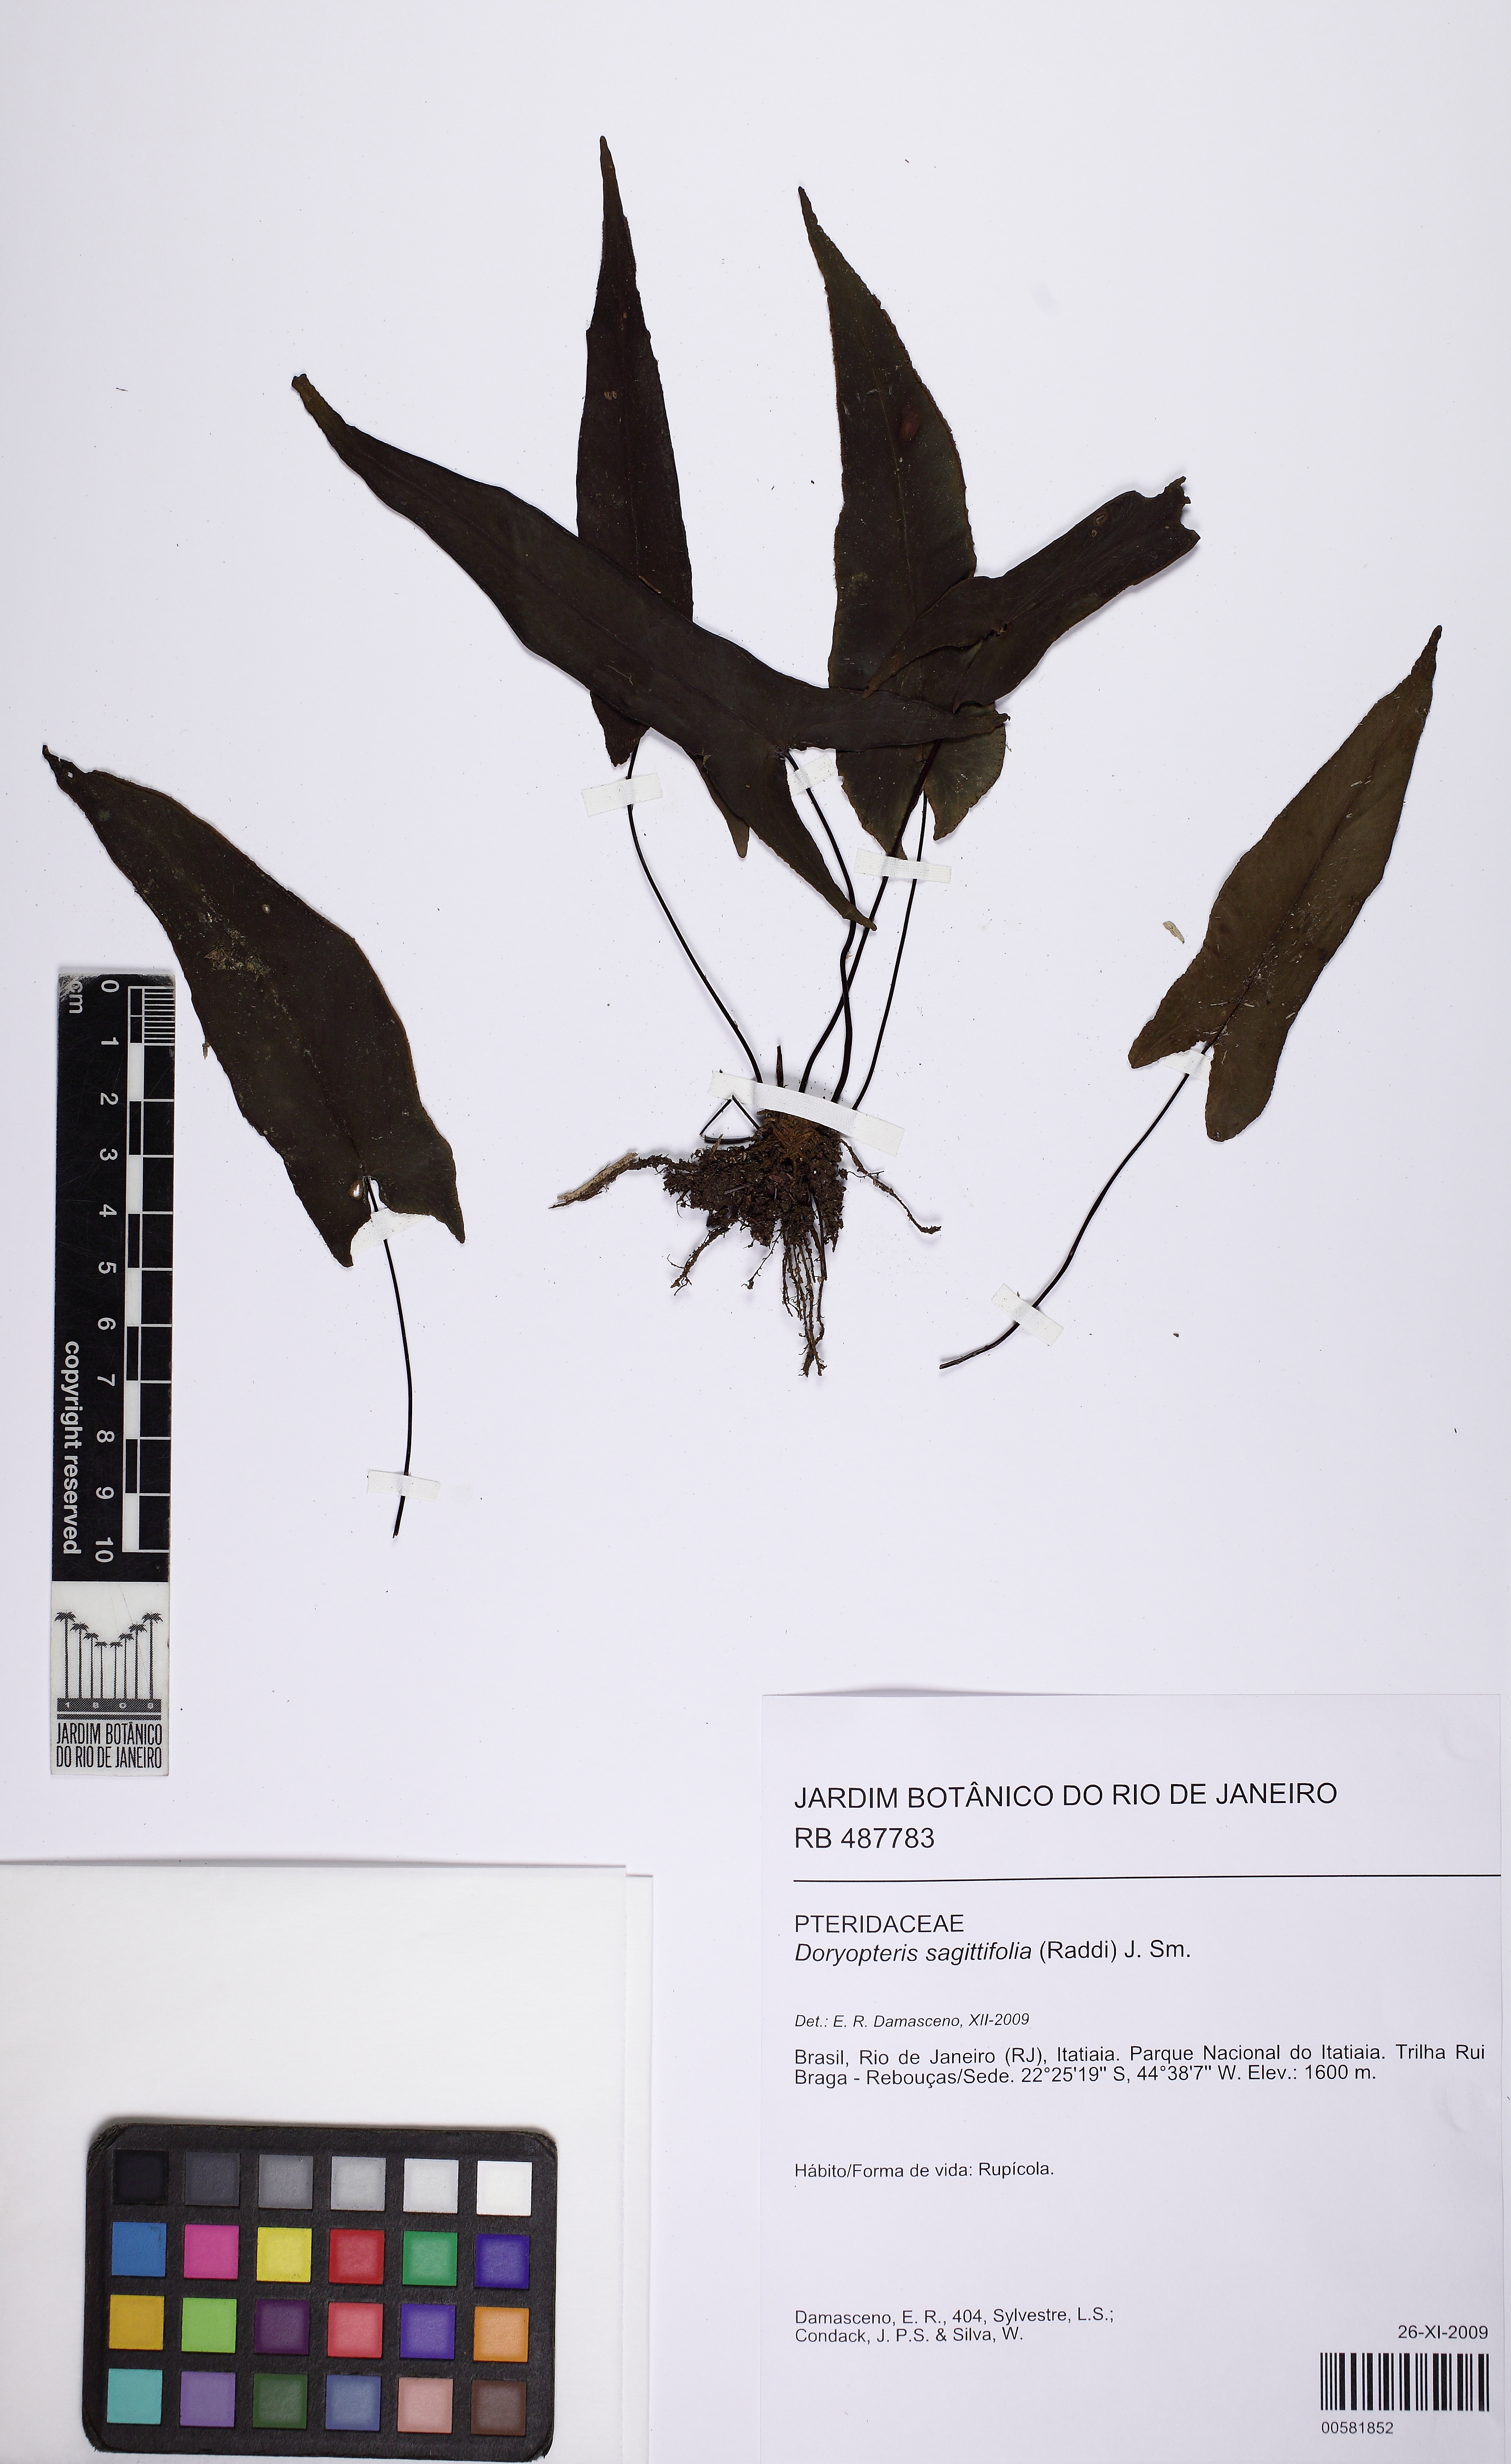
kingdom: Plantae
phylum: Tracheophyta
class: Polypodiopsida
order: Polypodiales
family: Pteridaceae
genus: Doryopteris
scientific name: Doryopteris sagittifolia
